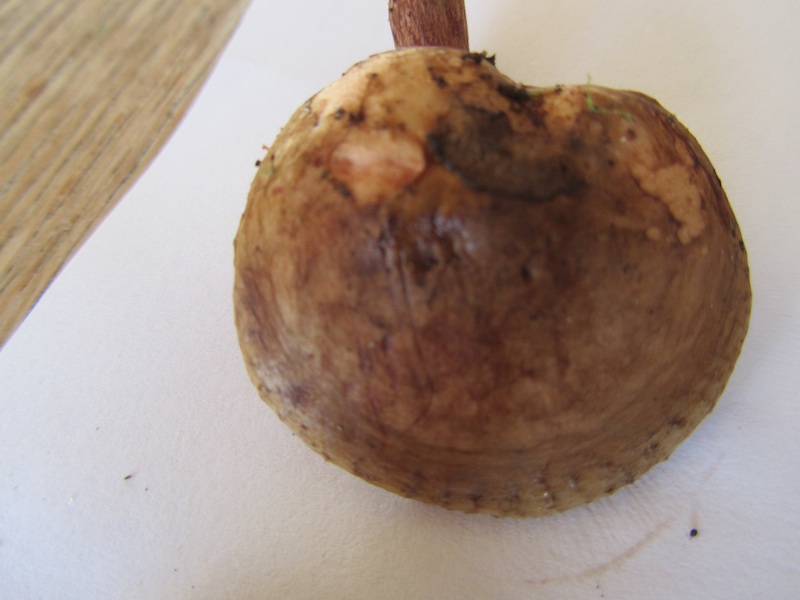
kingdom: Fungi
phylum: Basidiomycota
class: Agaricomycetes
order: Boletales
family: Paxillaceae
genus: Paxillus
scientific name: Paxillus involutus
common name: almindelig netbladhat
